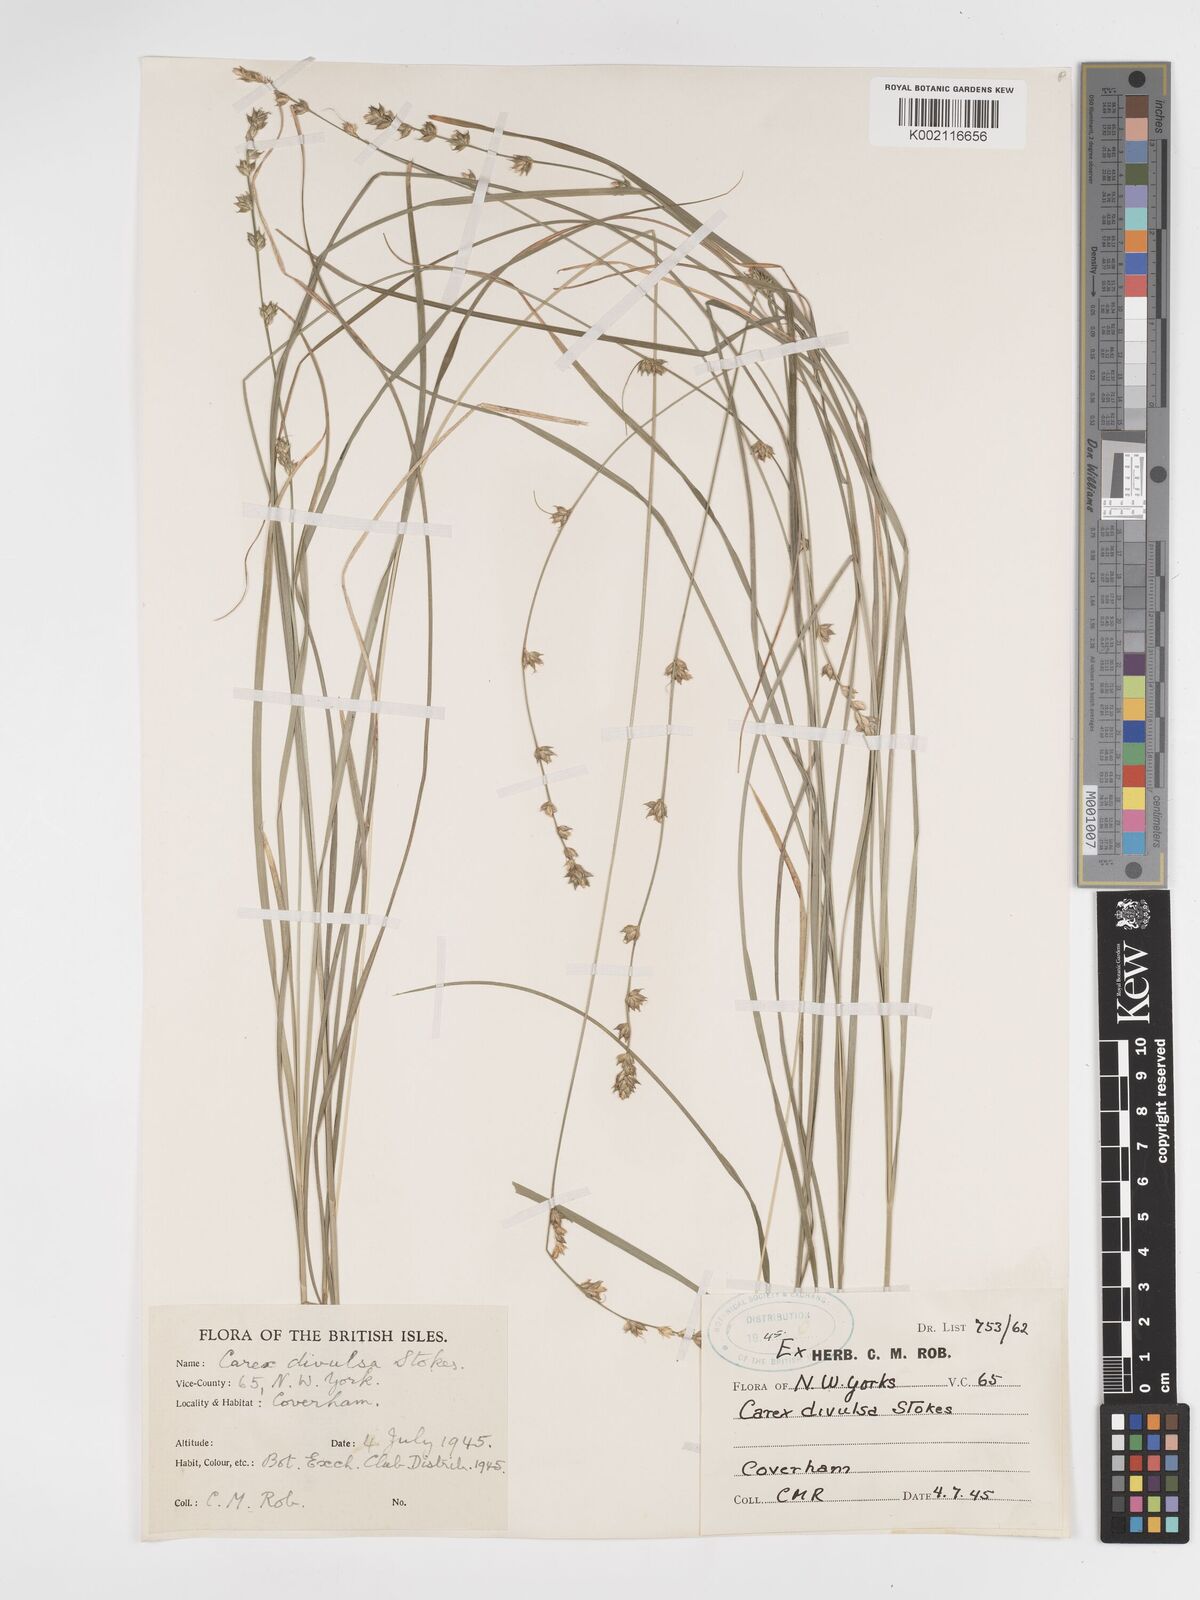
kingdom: Plantae
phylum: Tracheophyta
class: Liliopsida
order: Poales
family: Cyperaceae
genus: Carex
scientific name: Carex divulsa
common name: Grassland sedge
